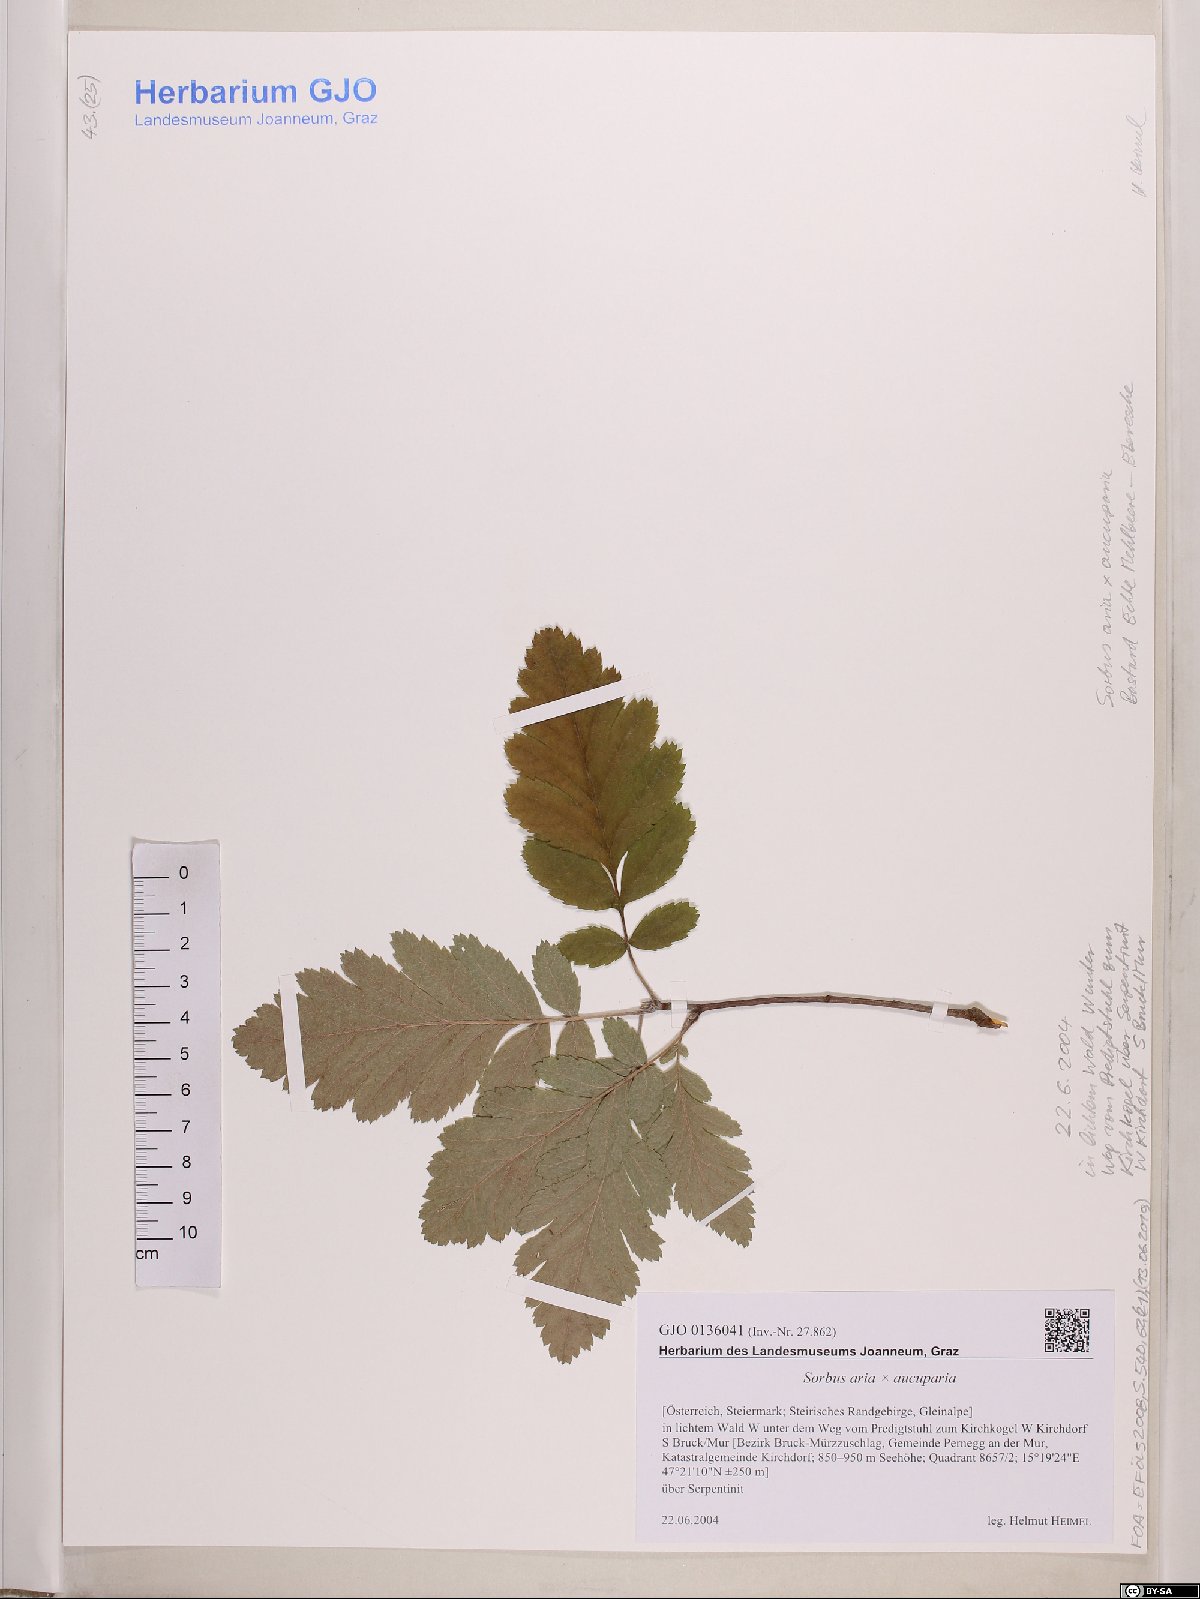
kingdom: Plantae
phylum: Tracheophyta
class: Magnoliopsida
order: Rosales
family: Rosaceae
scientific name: Rosaceae
